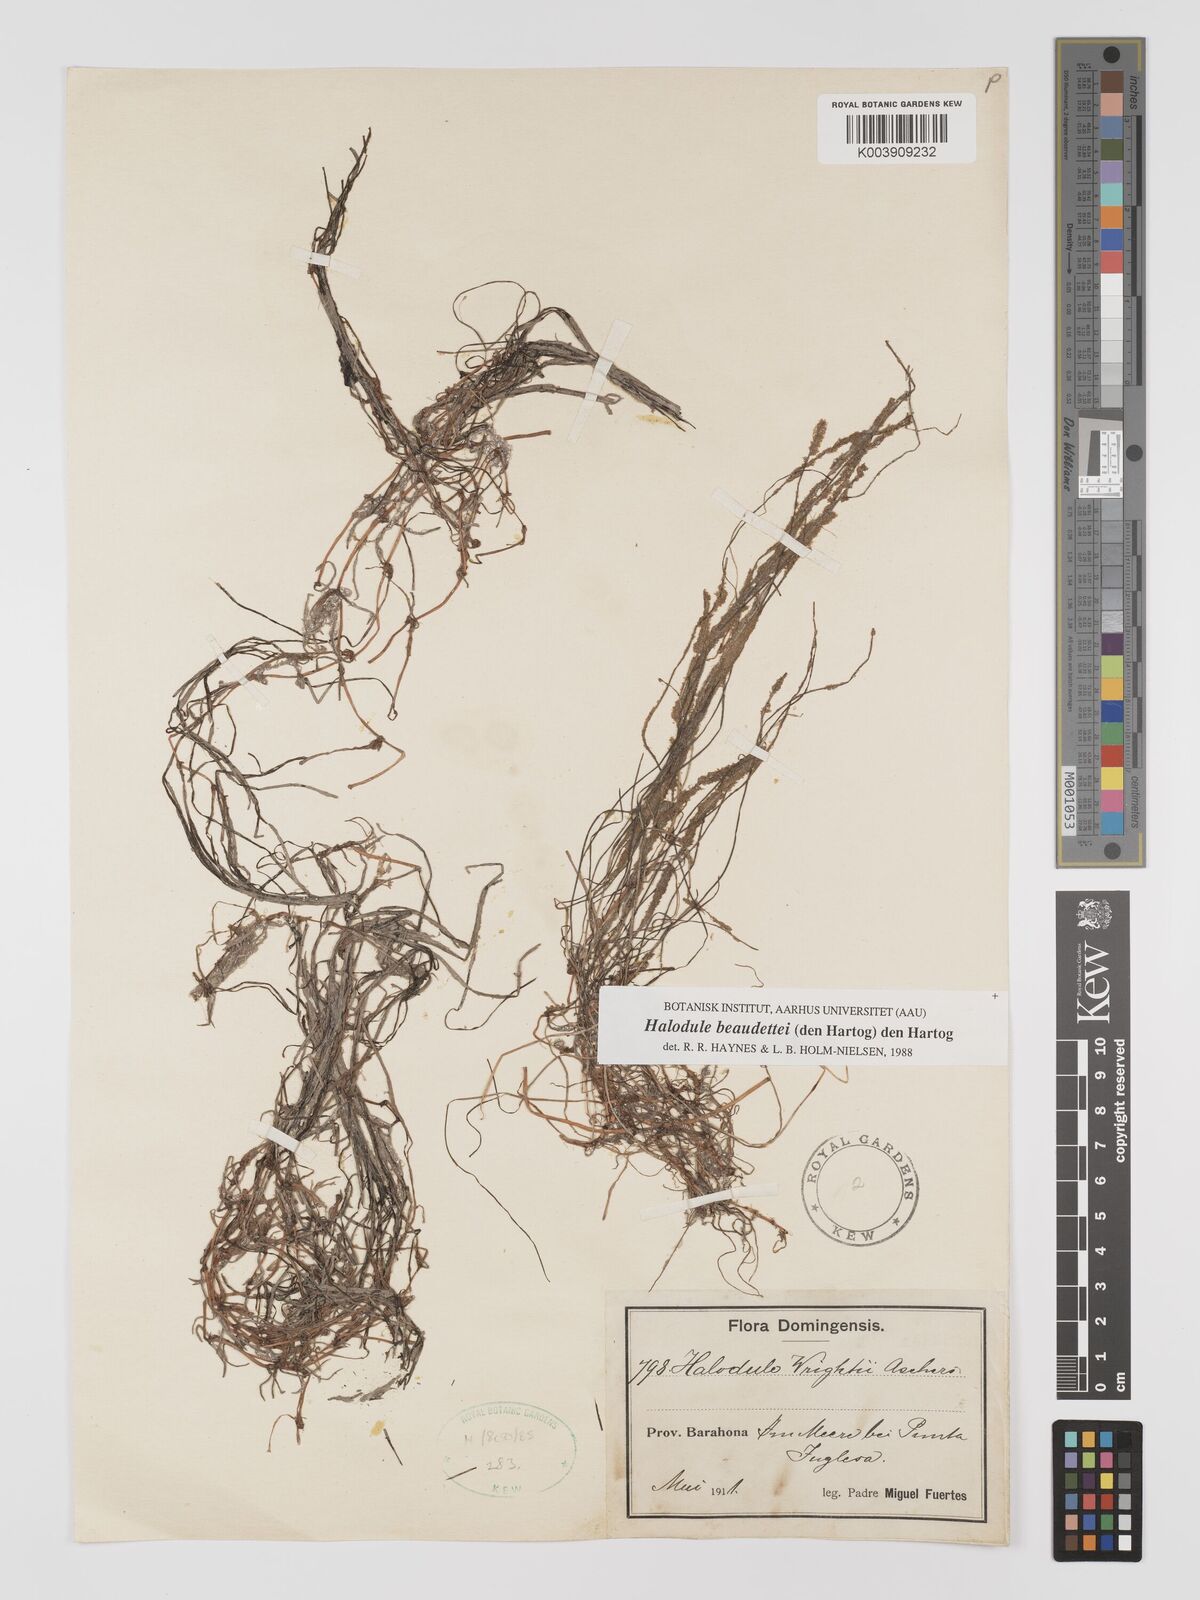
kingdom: Plantae
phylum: Tracheophyta
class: Liliopsida
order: Alismatales
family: Cymodoceaceae
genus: Halodule
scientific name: Halodule wrightii
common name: Shoalgrass
